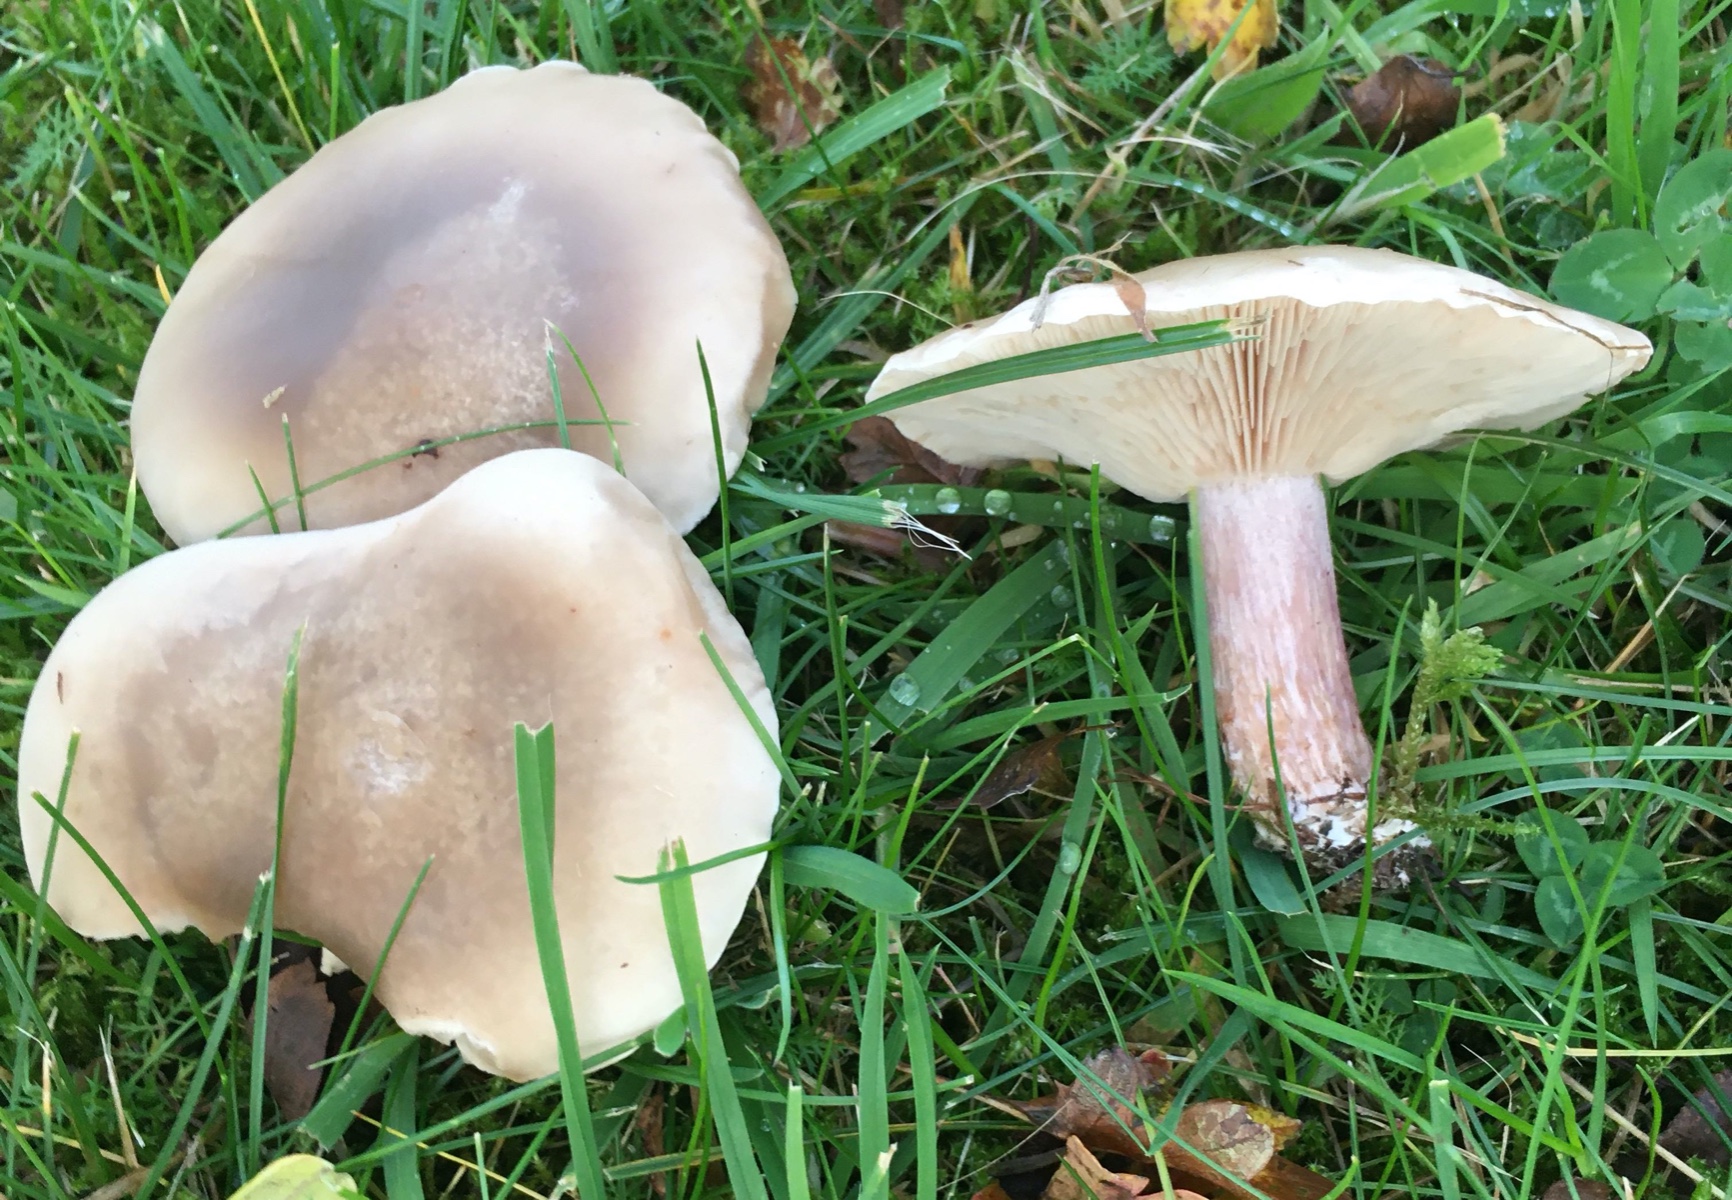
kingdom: Fungi
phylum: Basidiomycota
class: Agaricomycetes
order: Agaricales
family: Tricholomataceae
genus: Lepista
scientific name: Lepista personata
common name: bleg hekseringshat
